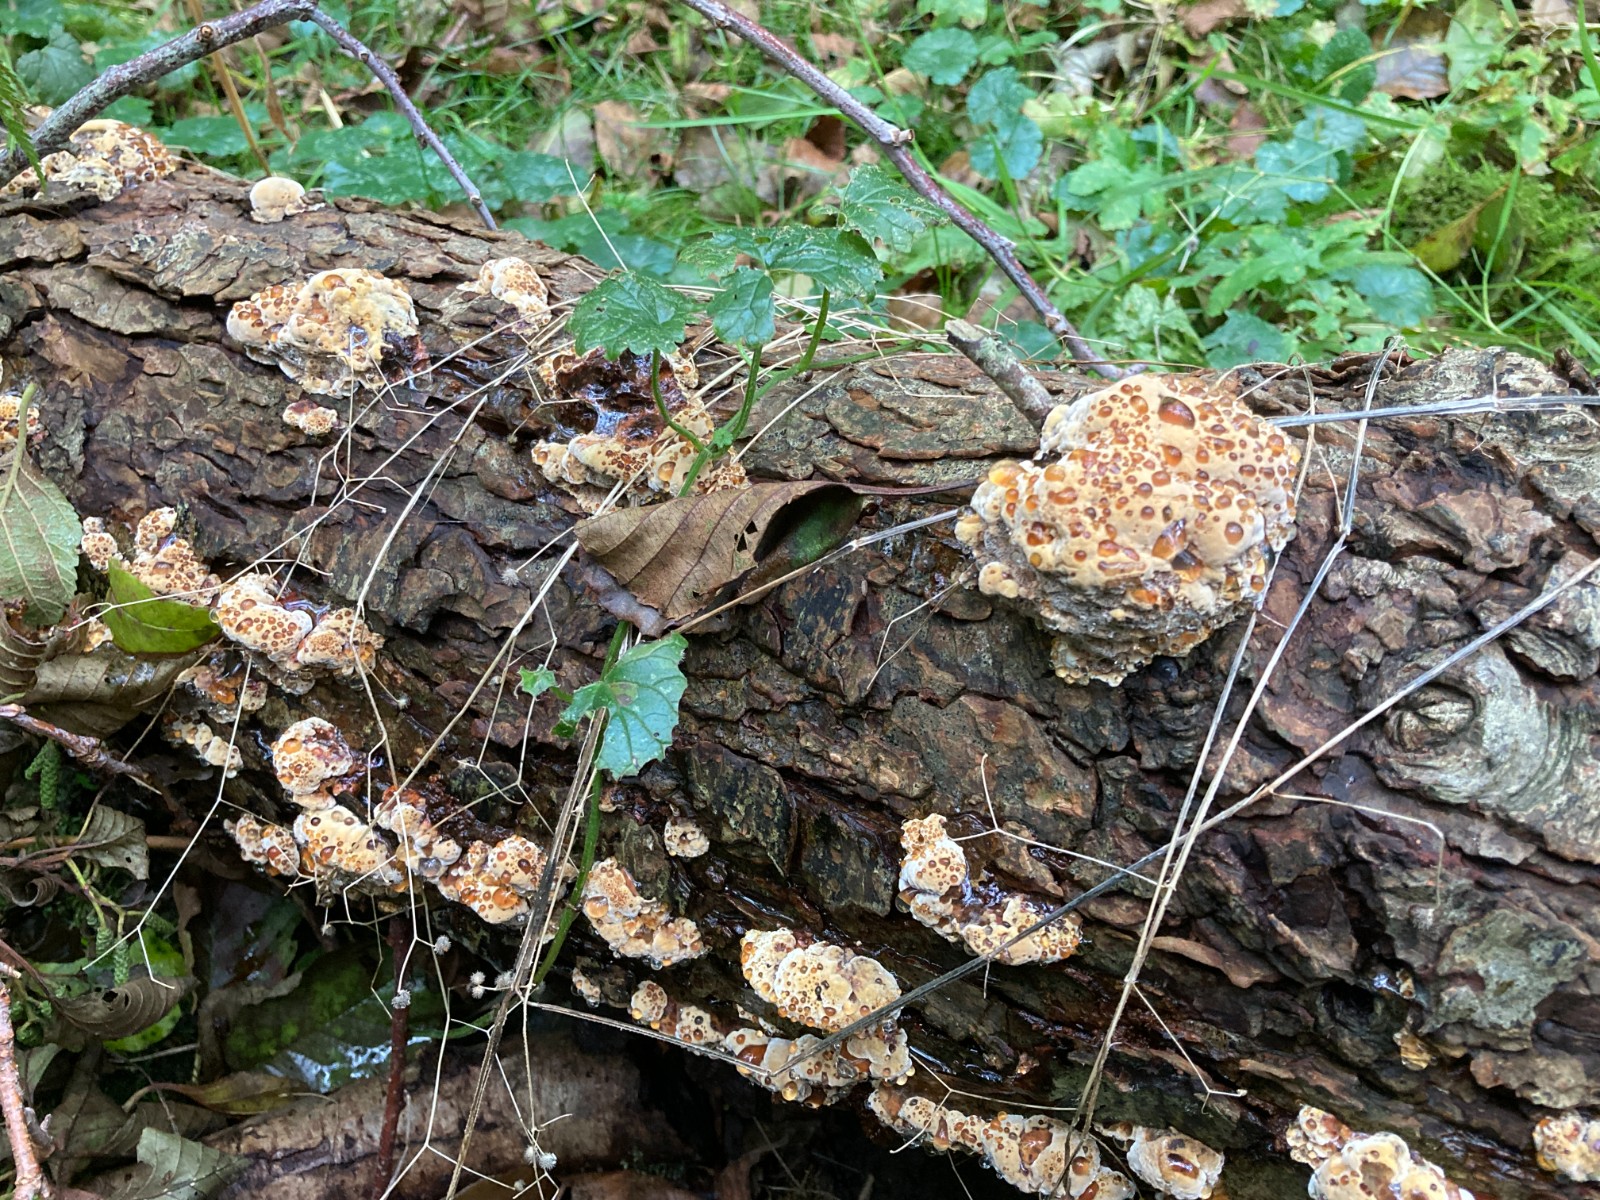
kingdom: Fungi
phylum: Basidiomycota
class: Agaricomycetes
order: Hymenochaetales
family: Hymenochaetaceae
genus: Xanthoporia
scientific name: Xanthoporia radiata
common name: elle-spejlporesvamp
